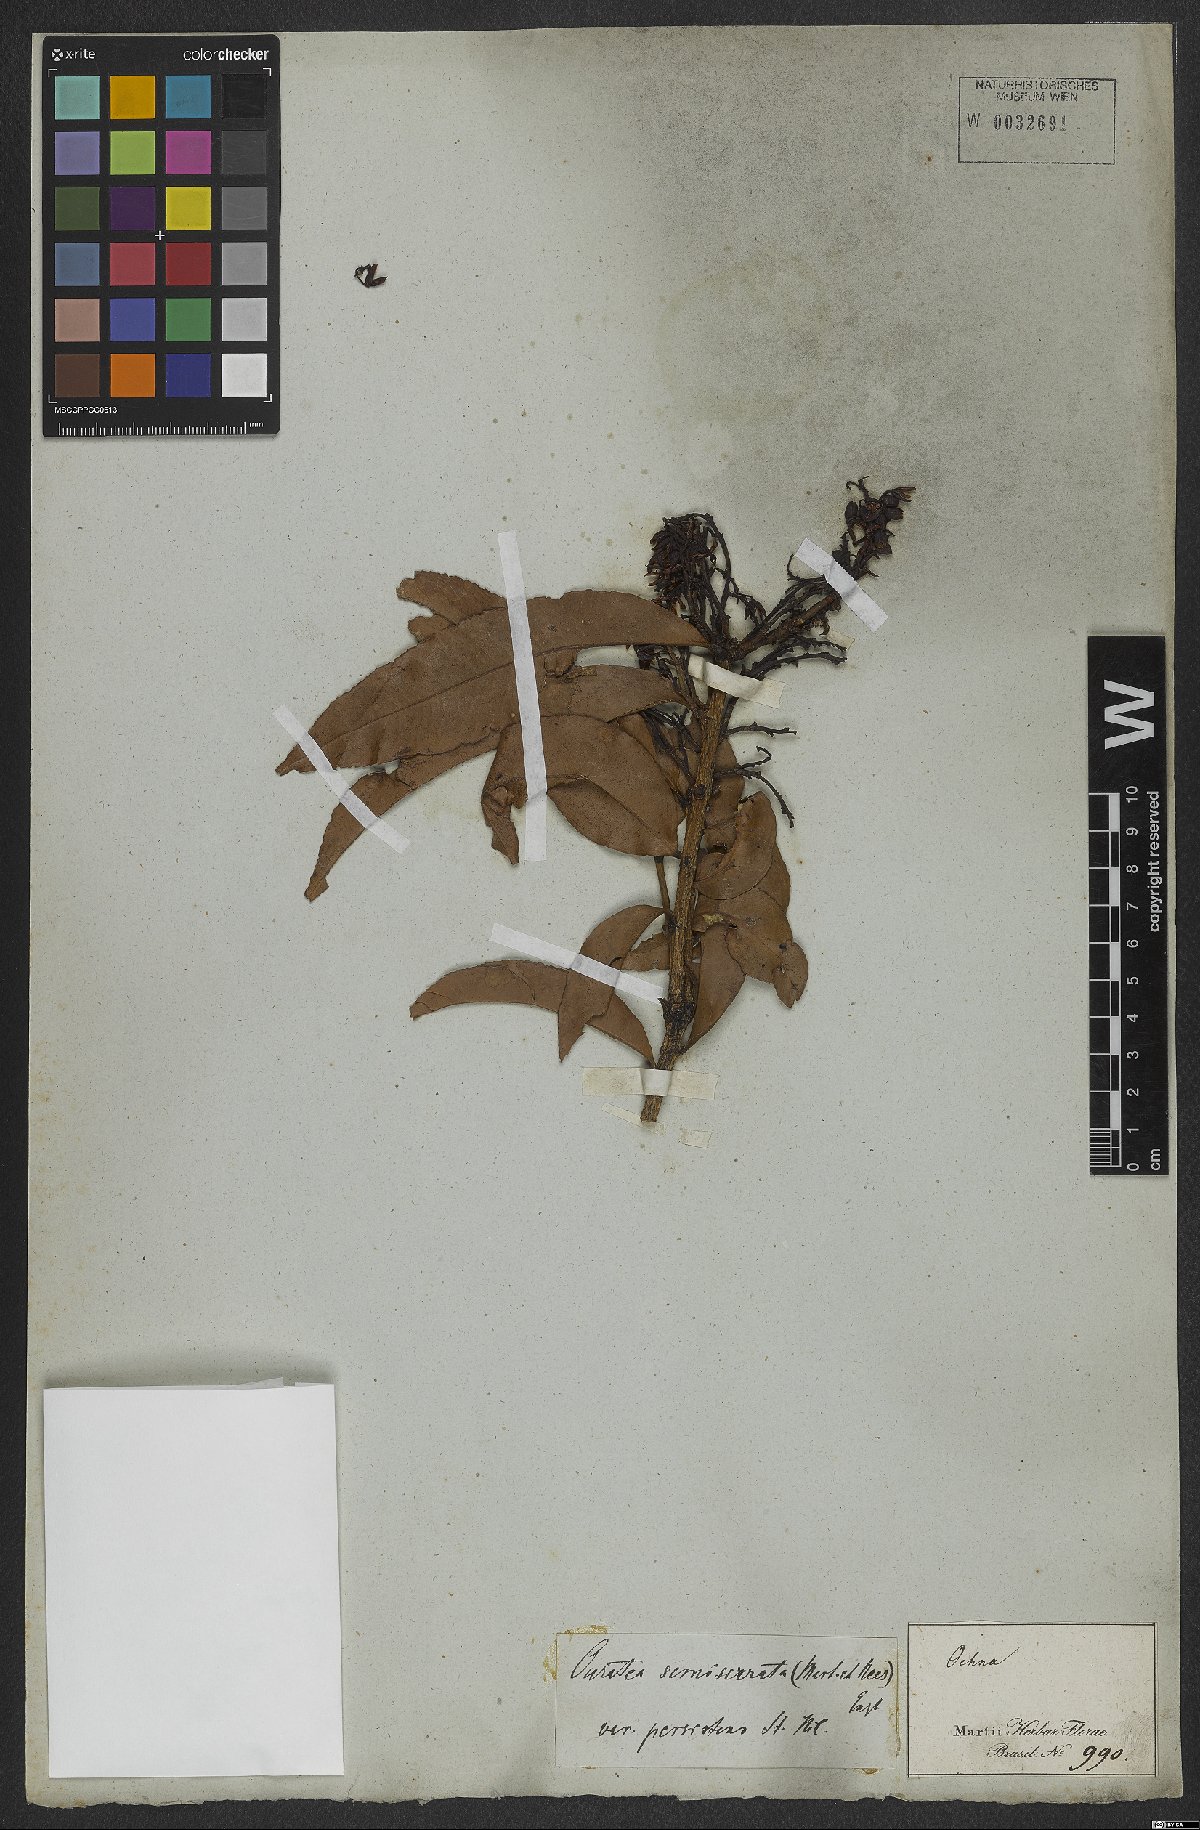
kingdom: Plantae
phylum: Tracheophyta
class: Magnoliopsida
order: Malpighiales
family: Ochnaceae
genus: Ouratea
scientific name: Ouratea semiserrata
